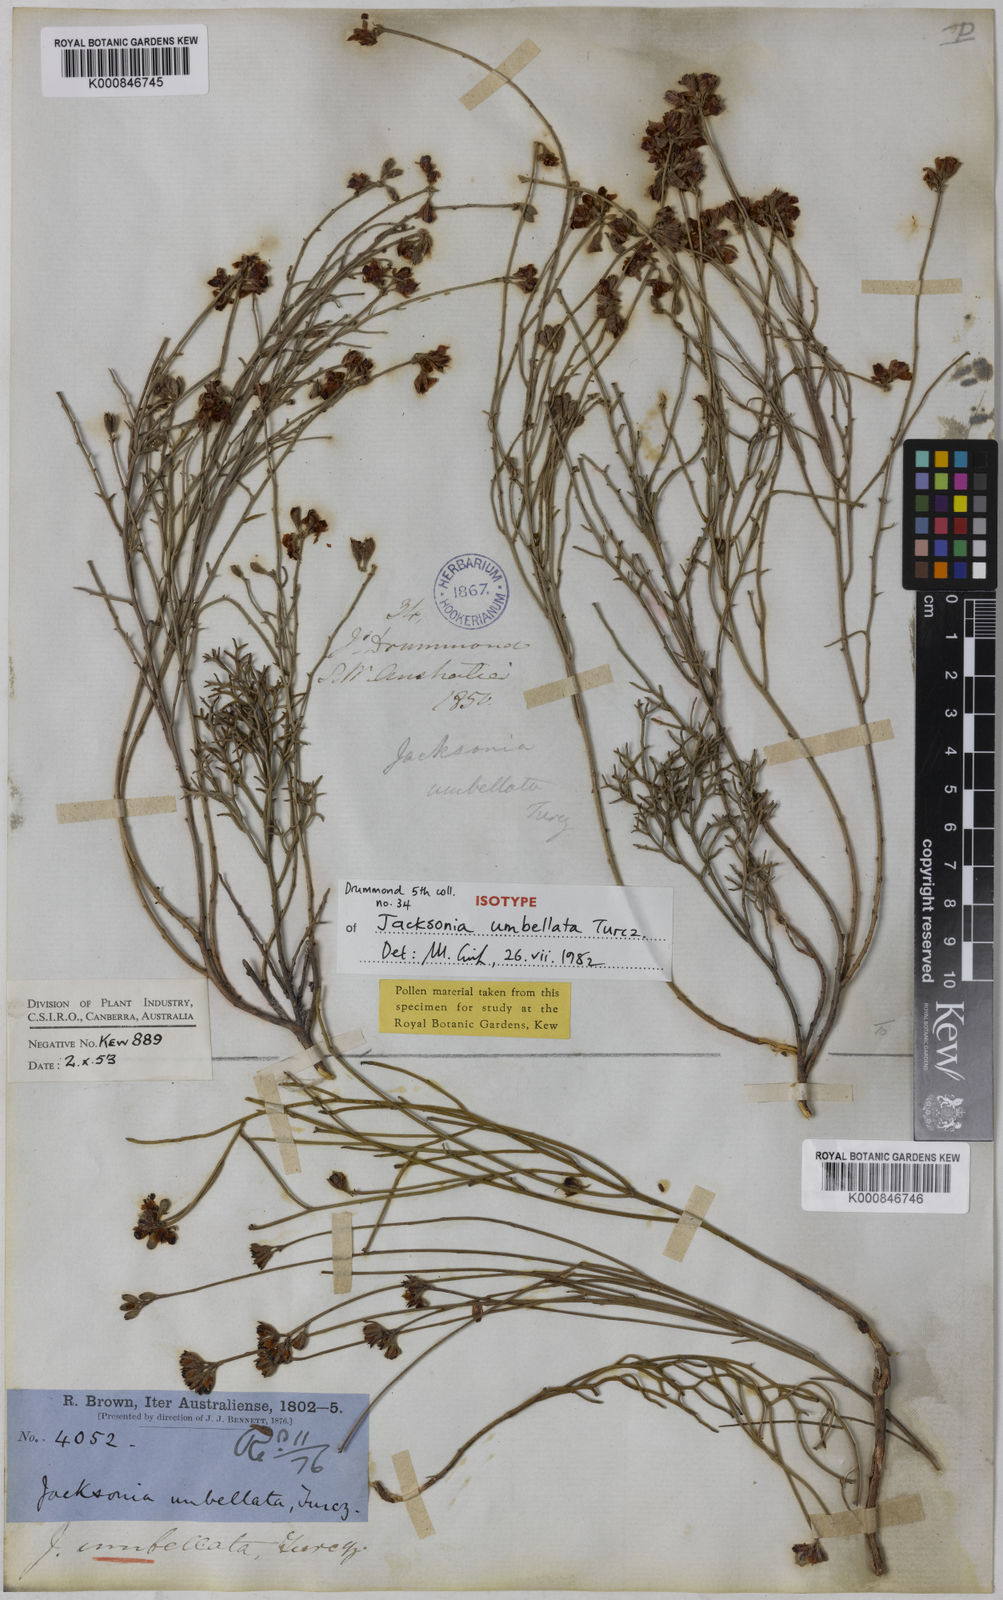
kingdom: Plantae
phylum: Tracheophyta
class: Magnoliopsida
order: Fabales
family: Fabaceae
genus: Jacksonia
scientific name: Jacksonia capitata
